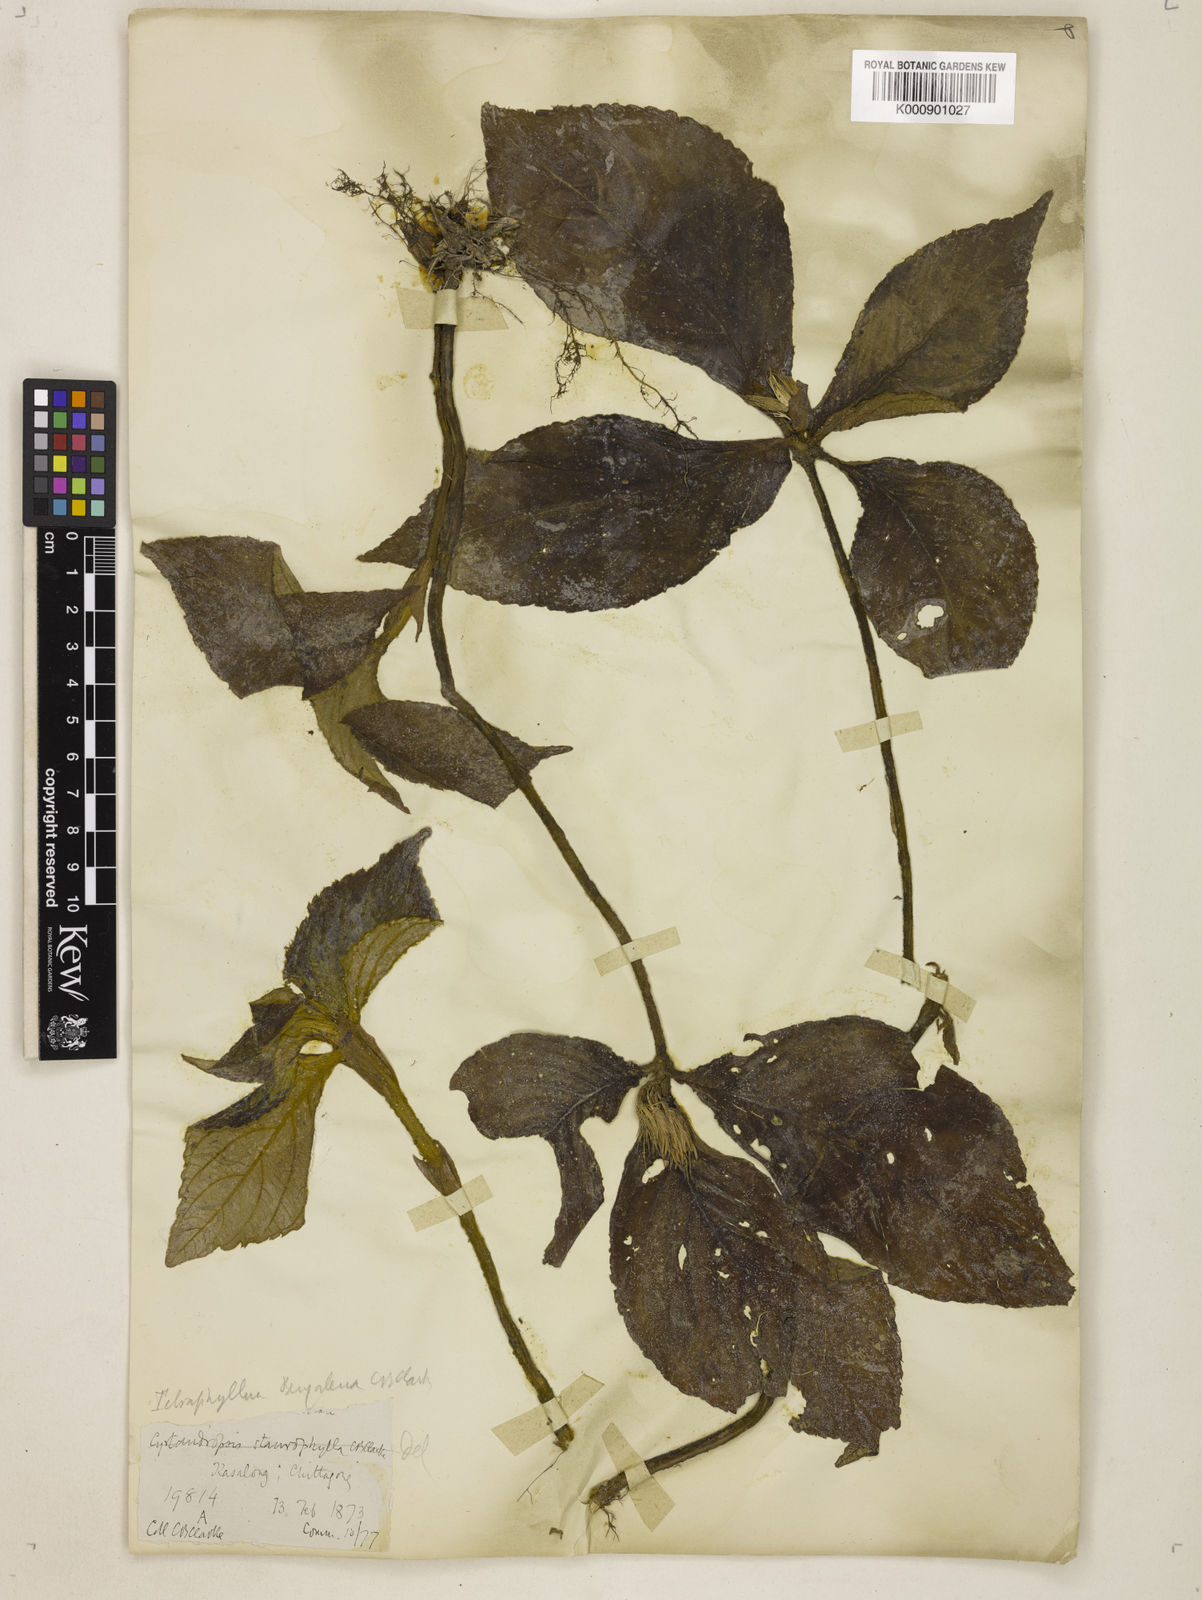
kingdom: Plantae
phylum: Tracheophyta
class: Magnoliopsida
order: Lamiales
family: Gesneriaceae
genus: Tetraphylloides
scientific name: Tetraphylloides bengalensis
